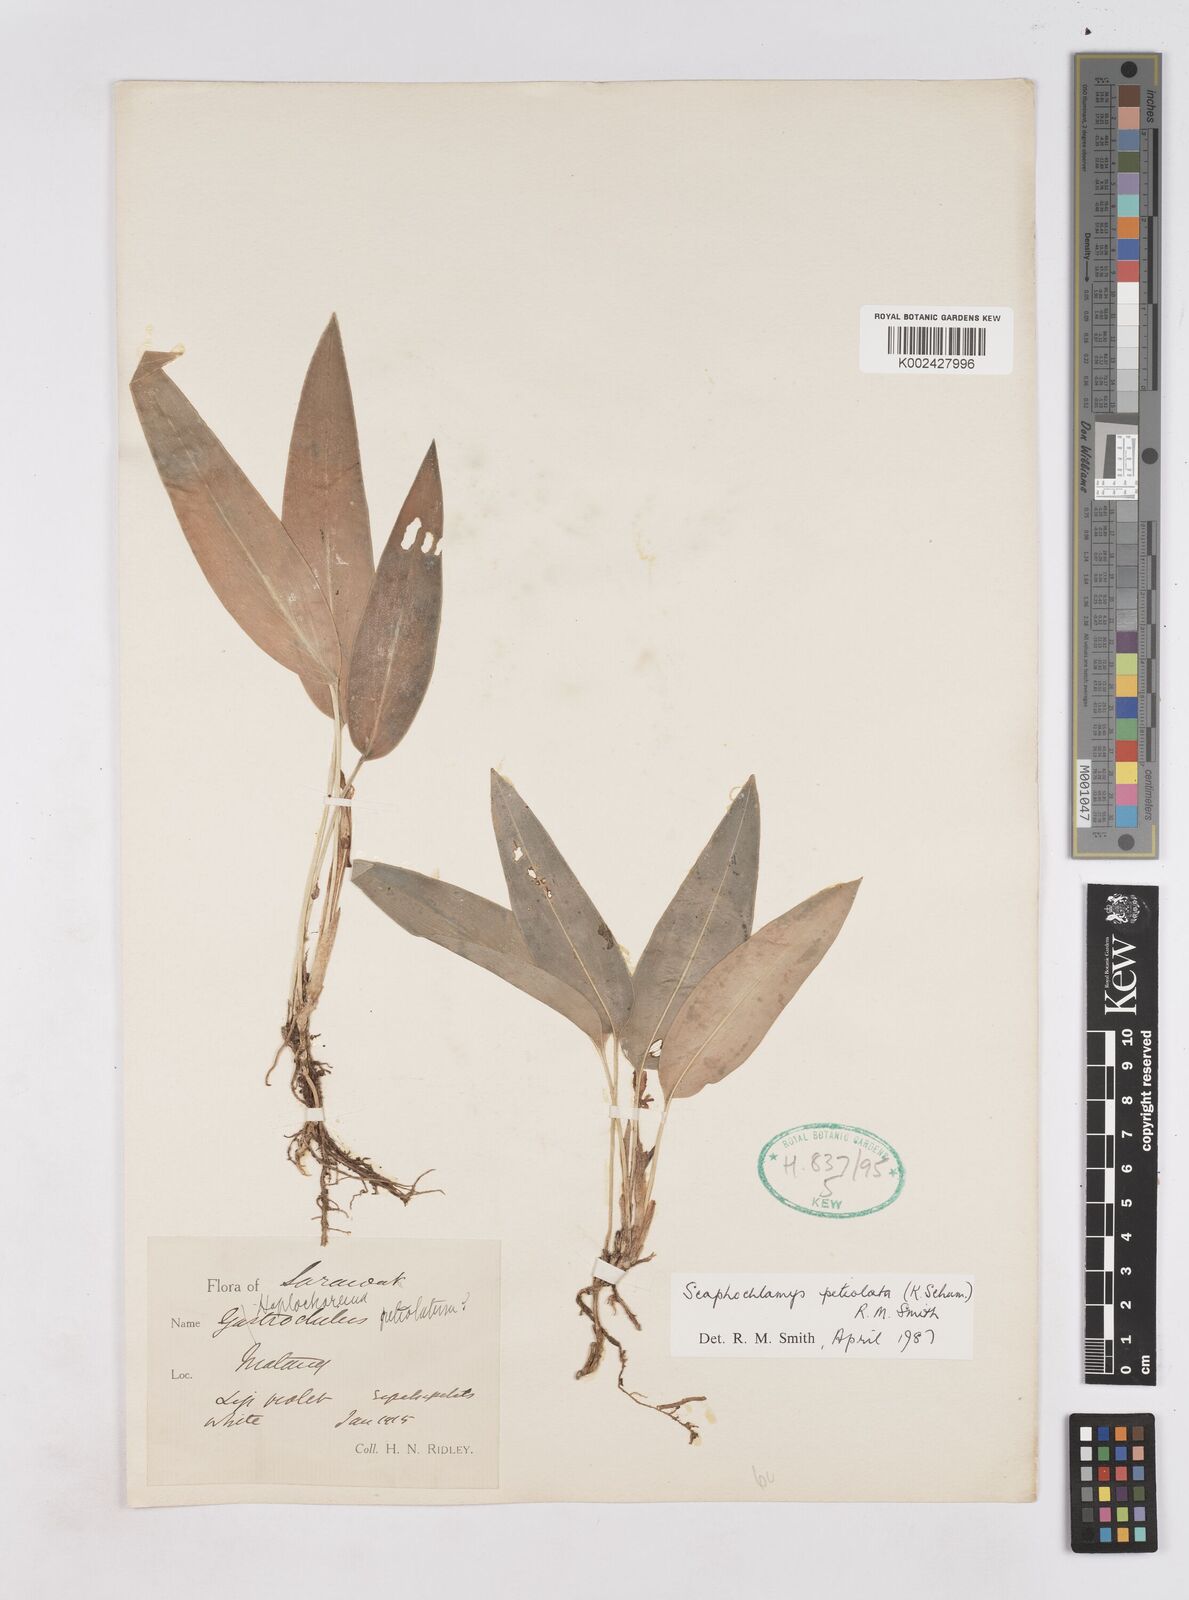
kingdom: Plantae
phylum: Tracheophyta
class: Liliopsida
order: Zingiberales
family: Zingiberaceae
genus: Scaphochlamys
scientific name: Scaphochlamys petiolata
